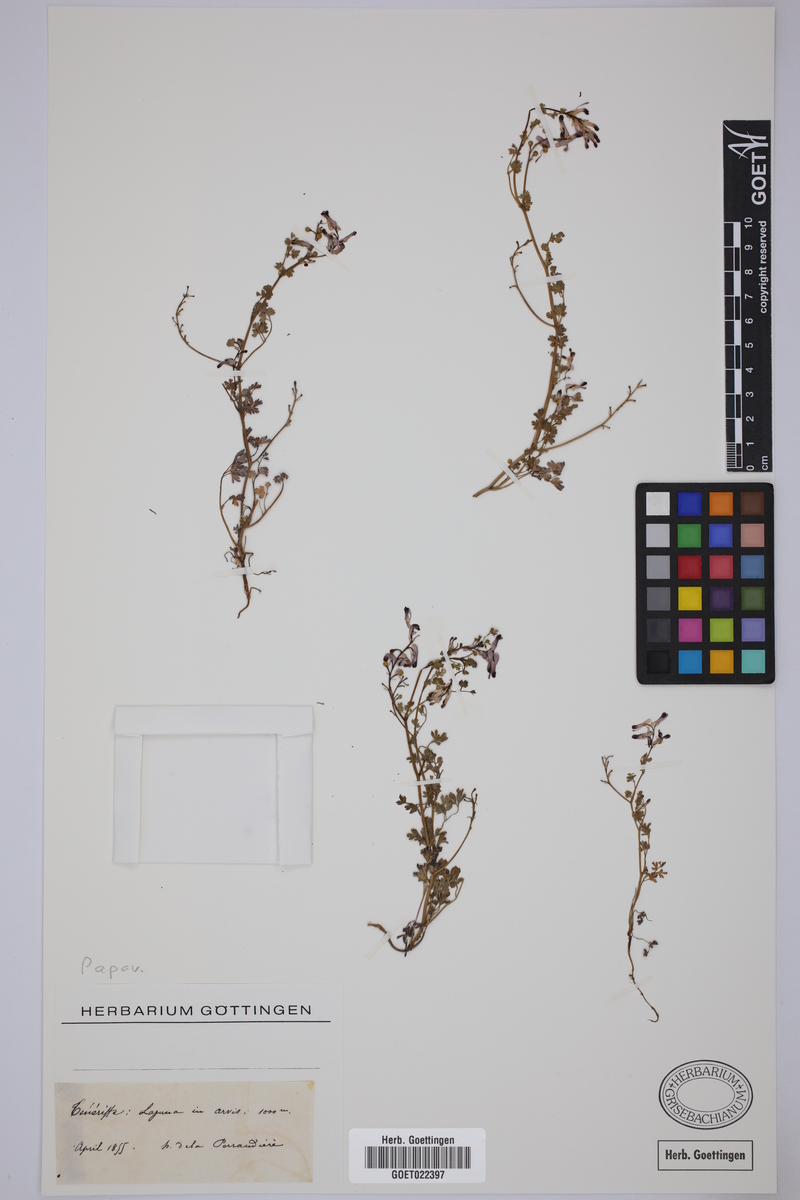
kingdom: Plantae
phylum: Tracheophyta
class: Magnoliopsida
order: Ranunculales
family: Papaveraceae
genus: Fumaria
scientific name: Fumaria
